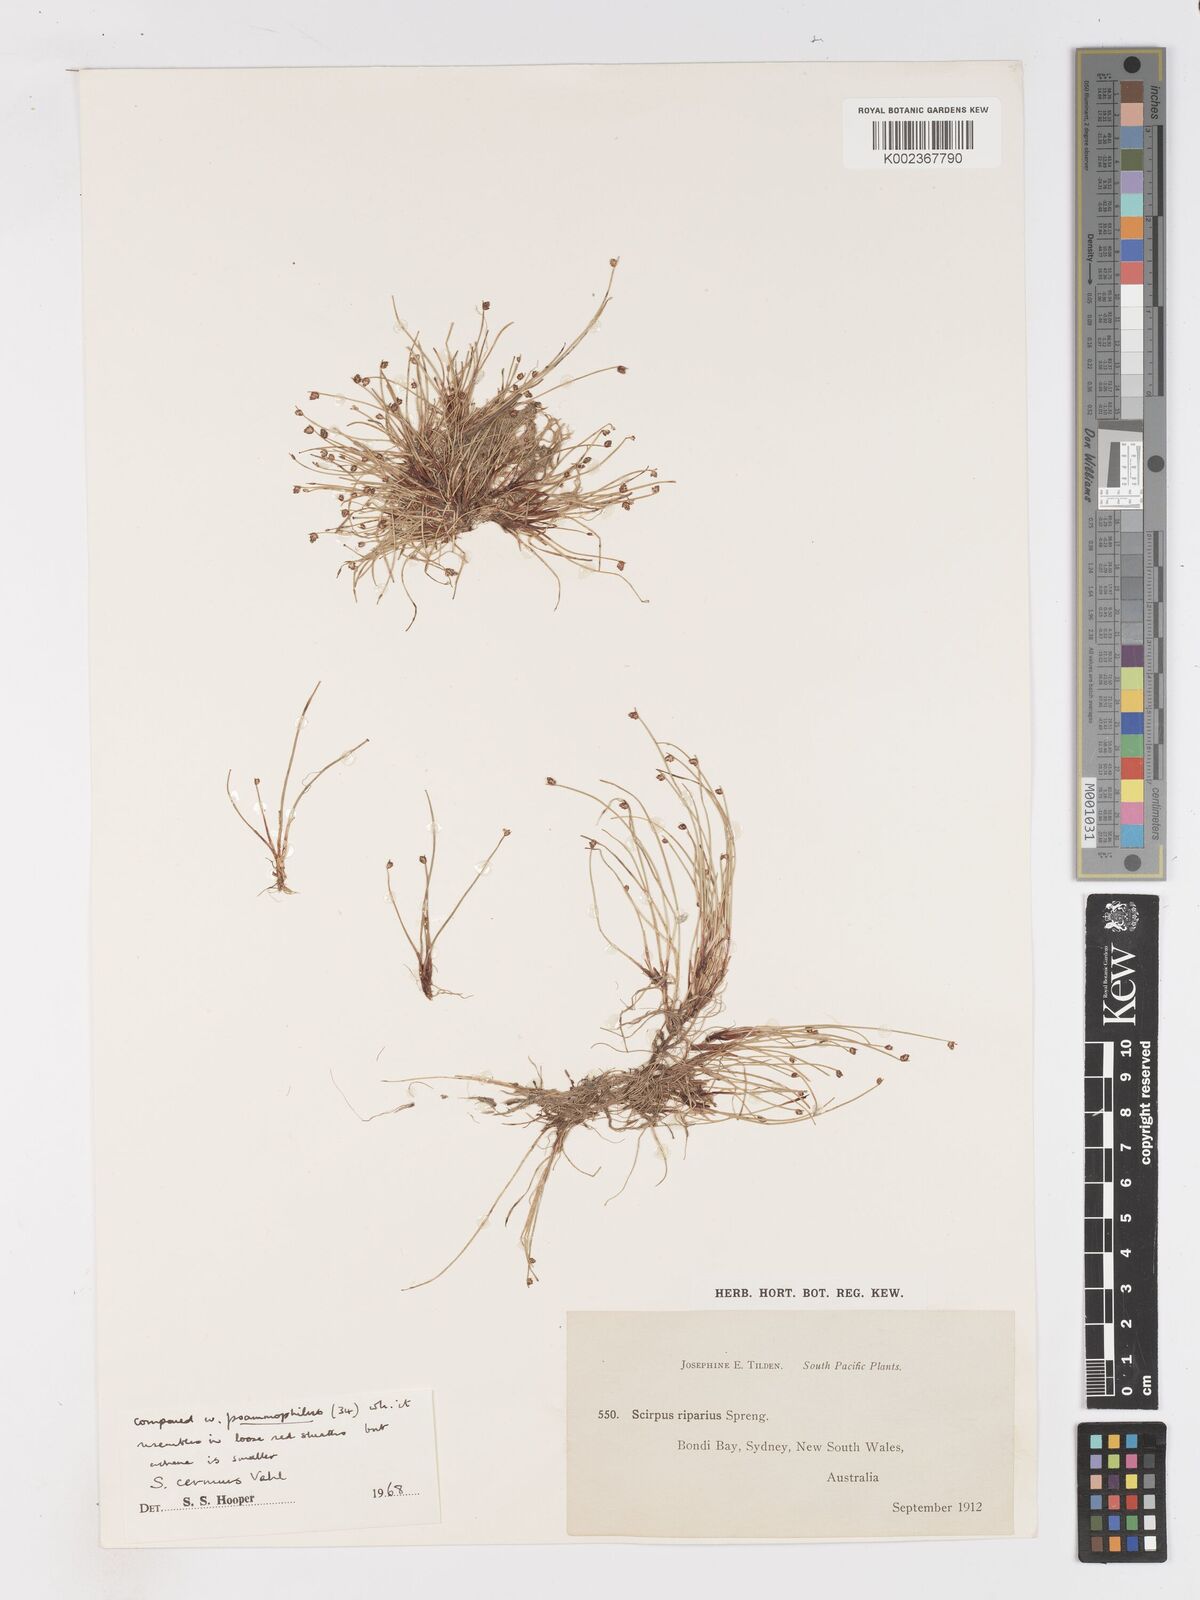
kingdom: Plantae
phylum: Tracheophyta
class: Liliopsida
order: Poales
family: Cyperaceae
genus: Isolepis
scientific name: Isolepis cernua
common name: Slender club-rush
